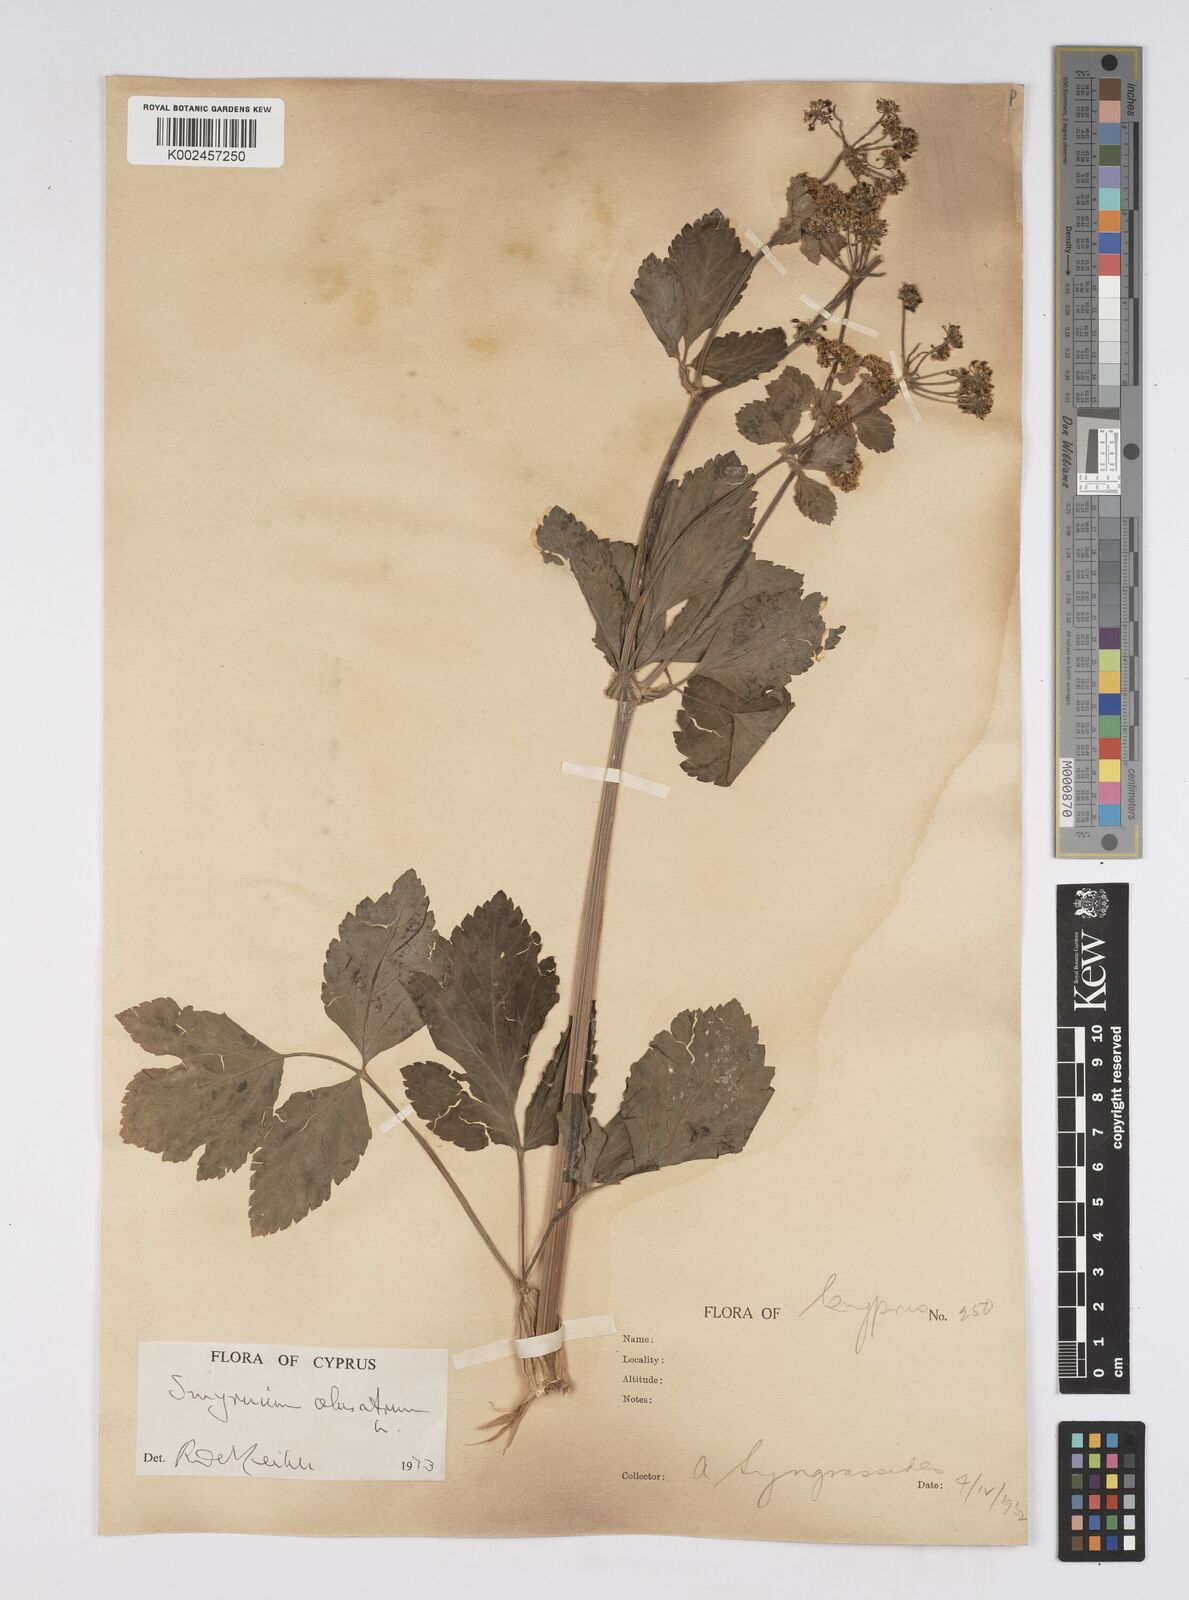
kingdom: Plantae
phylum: Tracheophyta
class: Magnoliopsida
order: Apiales
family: Apiaceae
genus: Smyrnium
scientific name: Smyrnium olusatrum
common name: Alexanders
